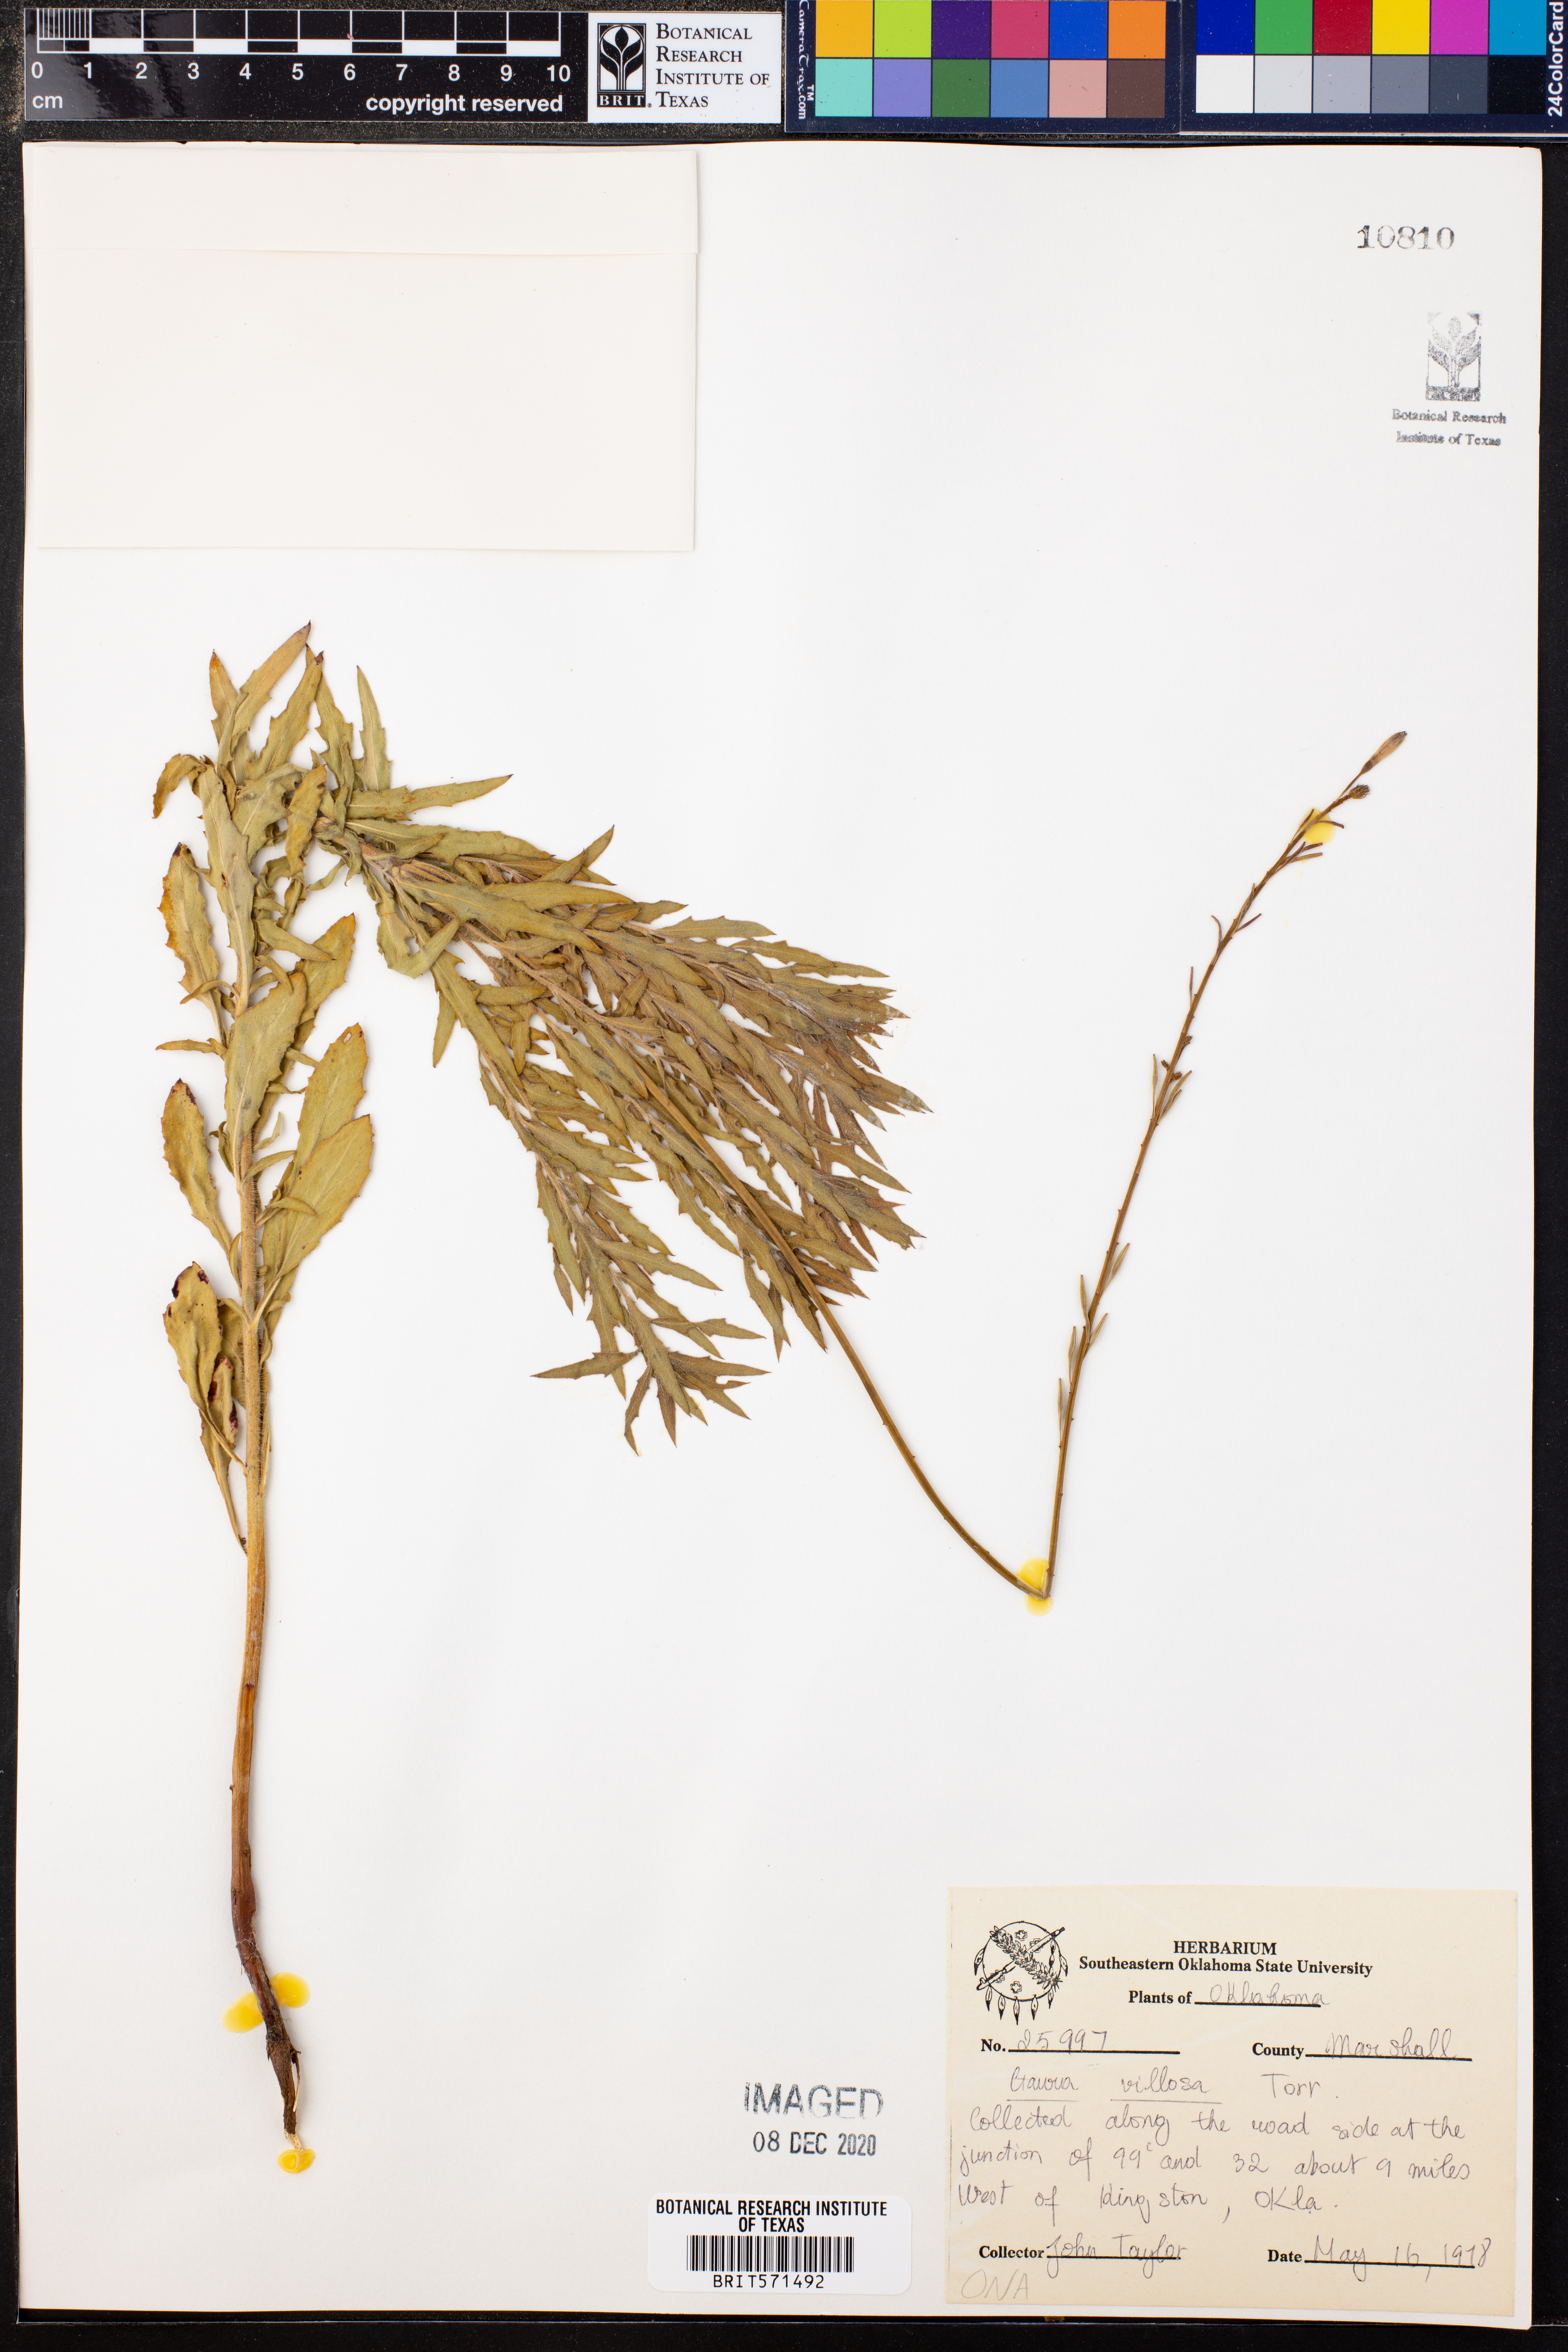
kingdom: Plantae
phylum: Tracheophyta
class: Magnoliopsida
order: Myrtales
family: Onagraceae
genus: Oenothera
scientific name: Oenothera cinerea
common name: Woolly beeblossom
